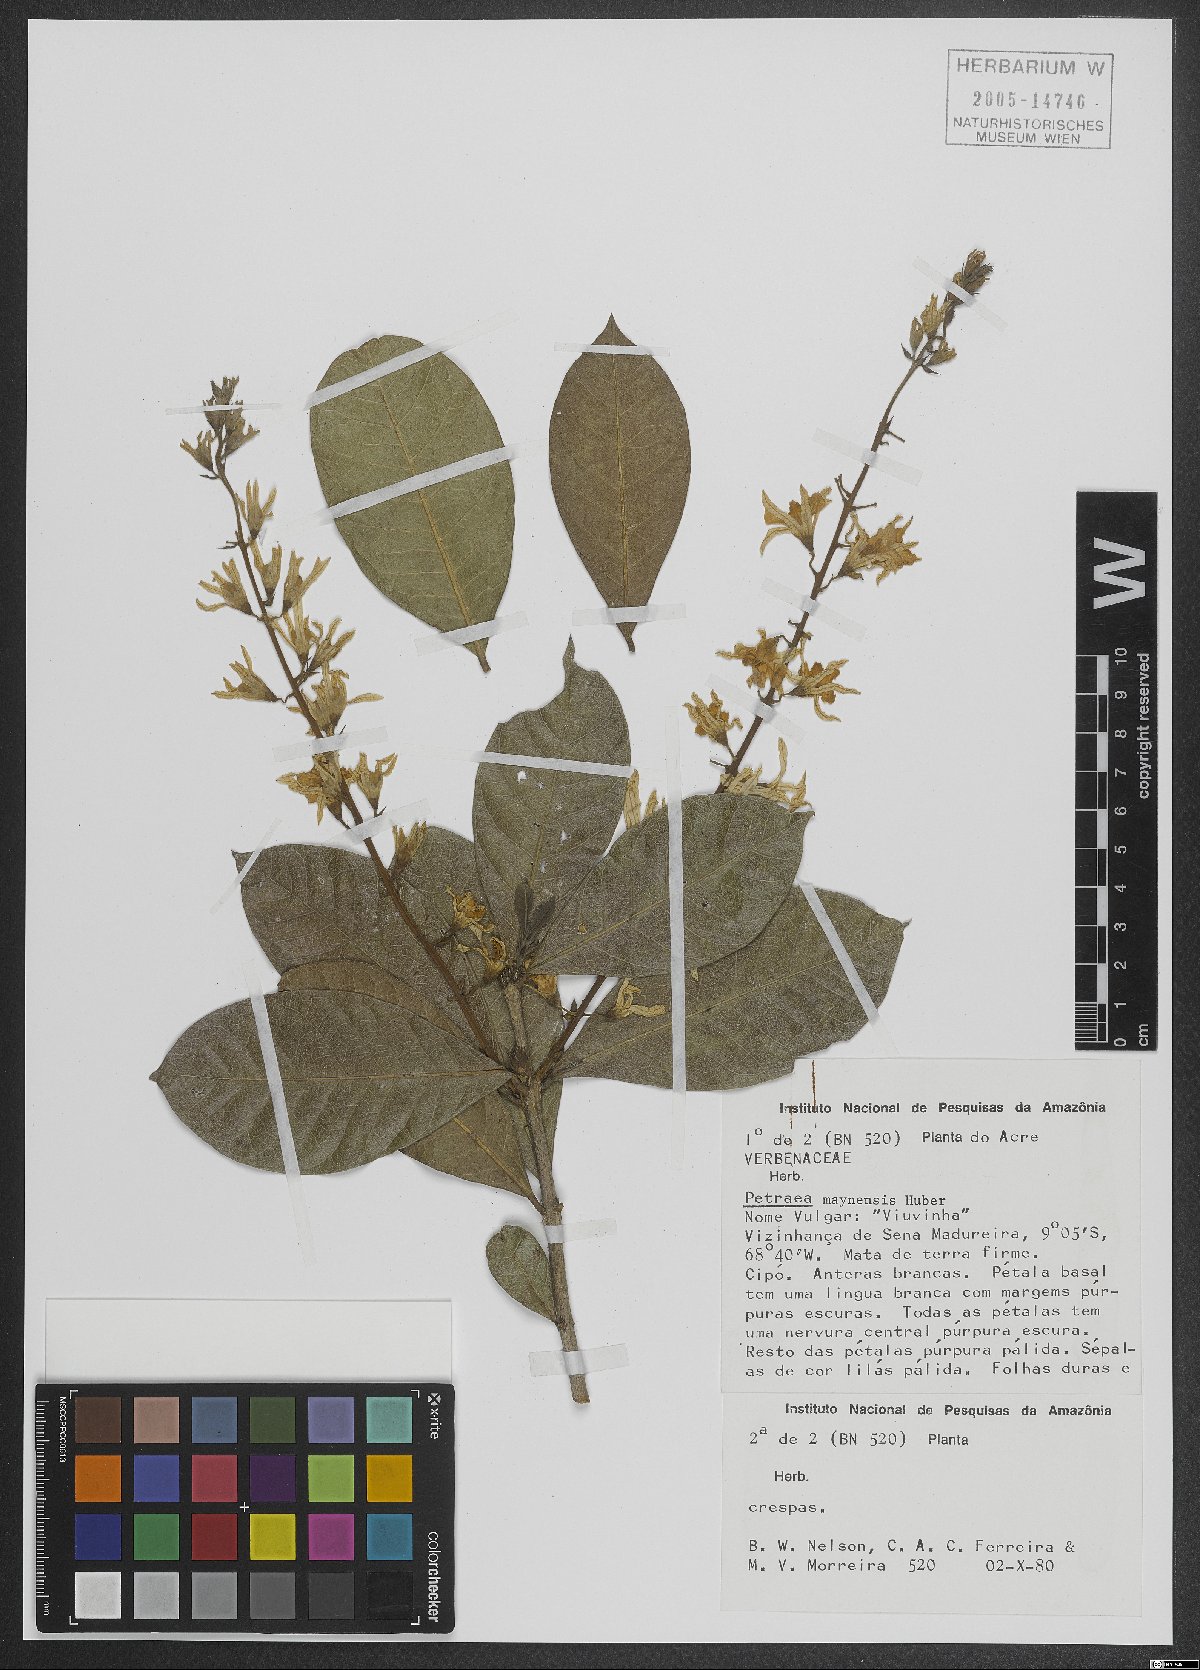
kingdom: Plantae
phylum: Tracheophyta
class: Magnoliopsida
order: Lamiales
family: Verbenaceae
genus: Petrea
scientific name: Petrea maynensis
